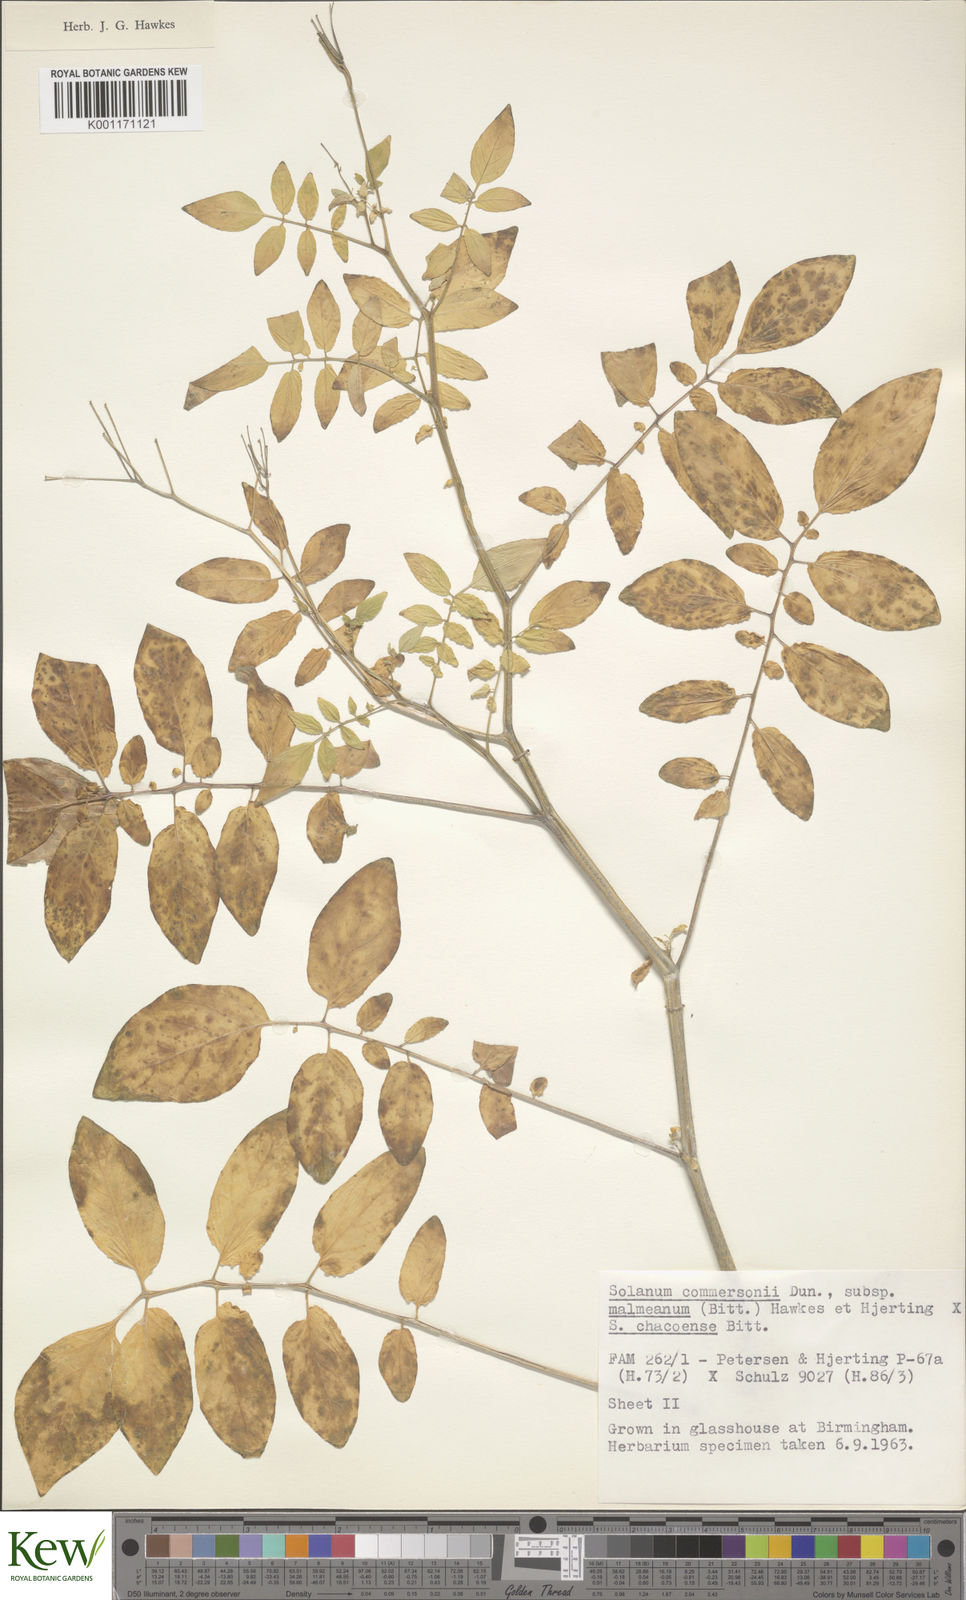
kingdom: Plantae
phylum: Tracheophyta
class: Magnoliopsida
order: Solanales
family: Solanaceae
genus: Solanum
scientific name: Solanum malmeanum
